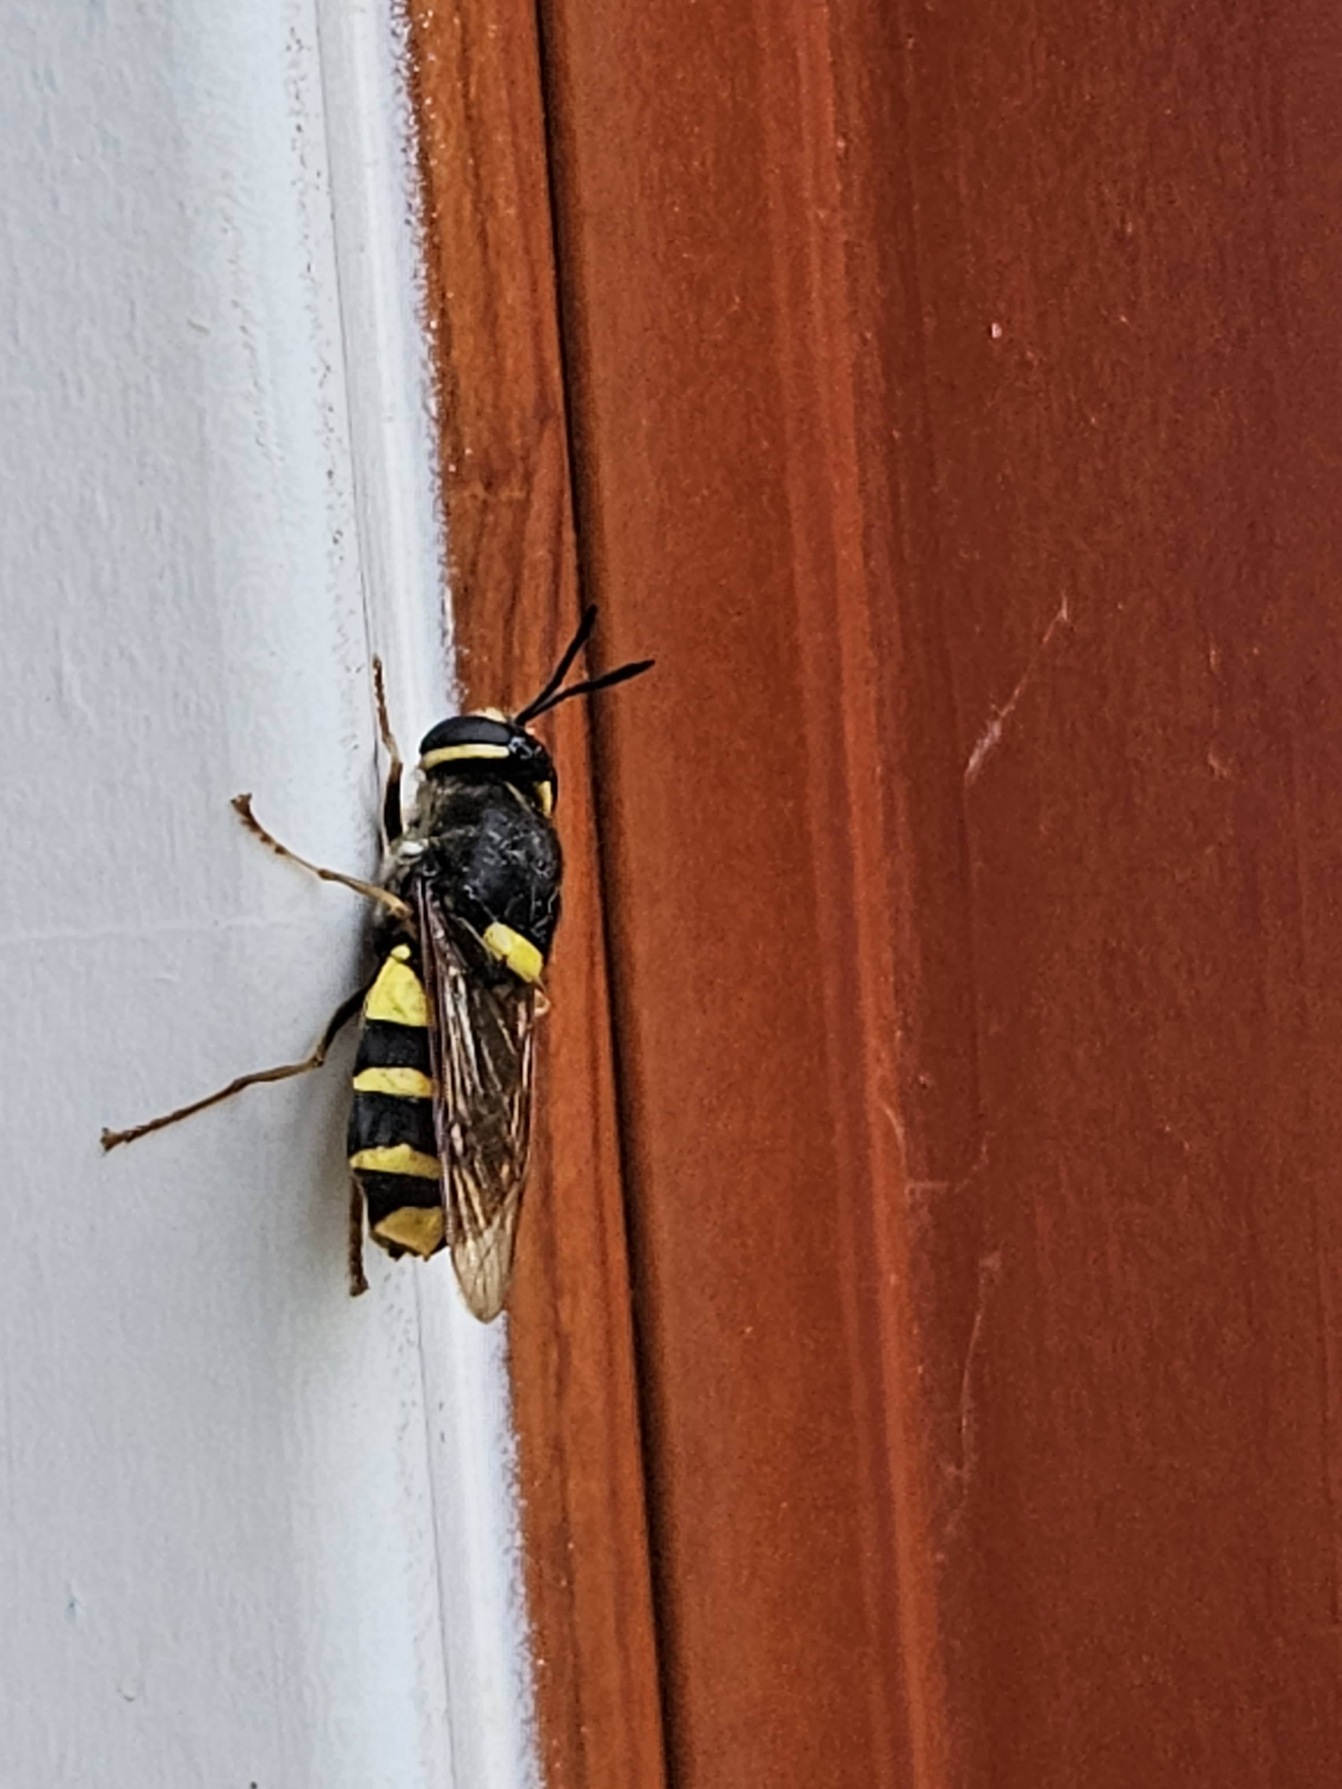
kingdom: Animalia
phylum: Arthropoda
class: Insecta
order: Diptera
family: Stratiomyidae
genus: Stratiomys
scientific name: Stratiomys potamida
